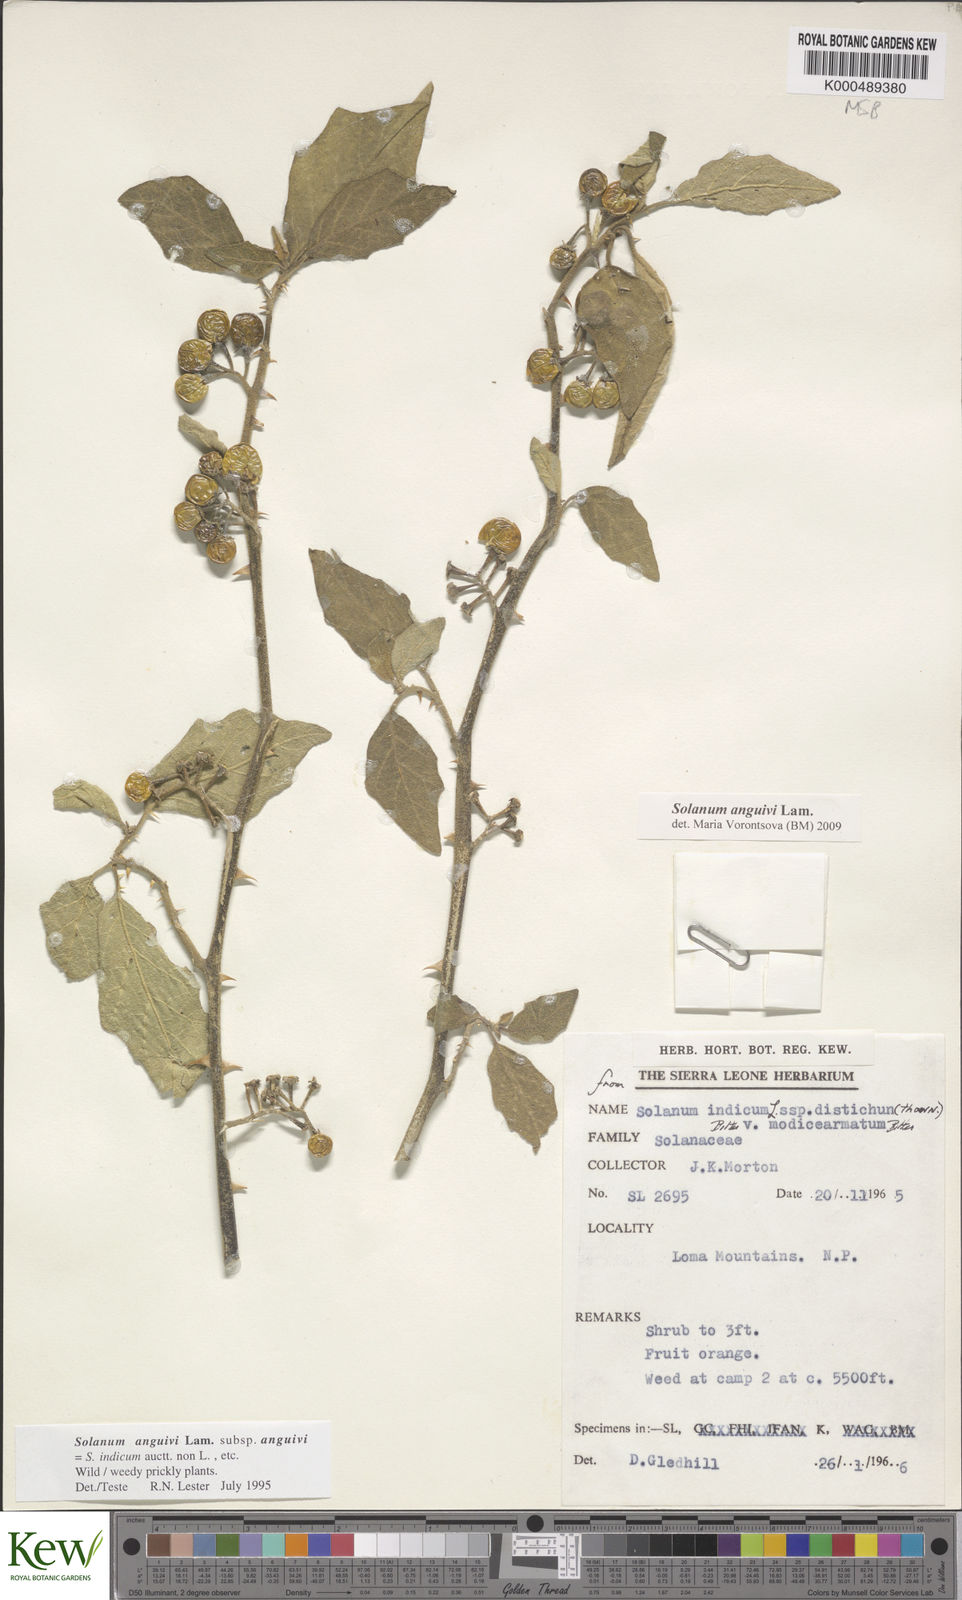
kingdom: Plantae
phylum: Tracheophyta
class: Magnoliopsida
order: Solanales
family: Solanaceae
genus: Solanum
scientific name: Solanum anguivi
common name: Forest bitterberry
